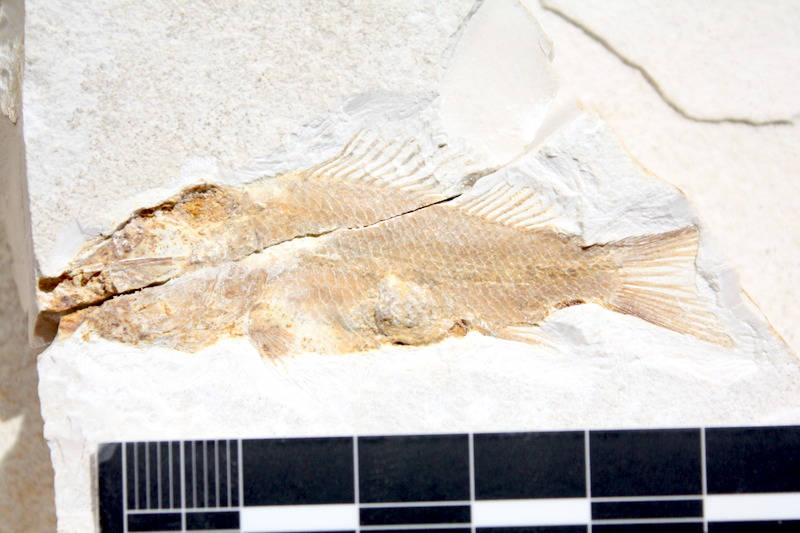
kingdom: Animalia
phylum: Chordata
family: Macrosemiidae
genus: Notagogus
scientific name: Notagogus denticulatus
